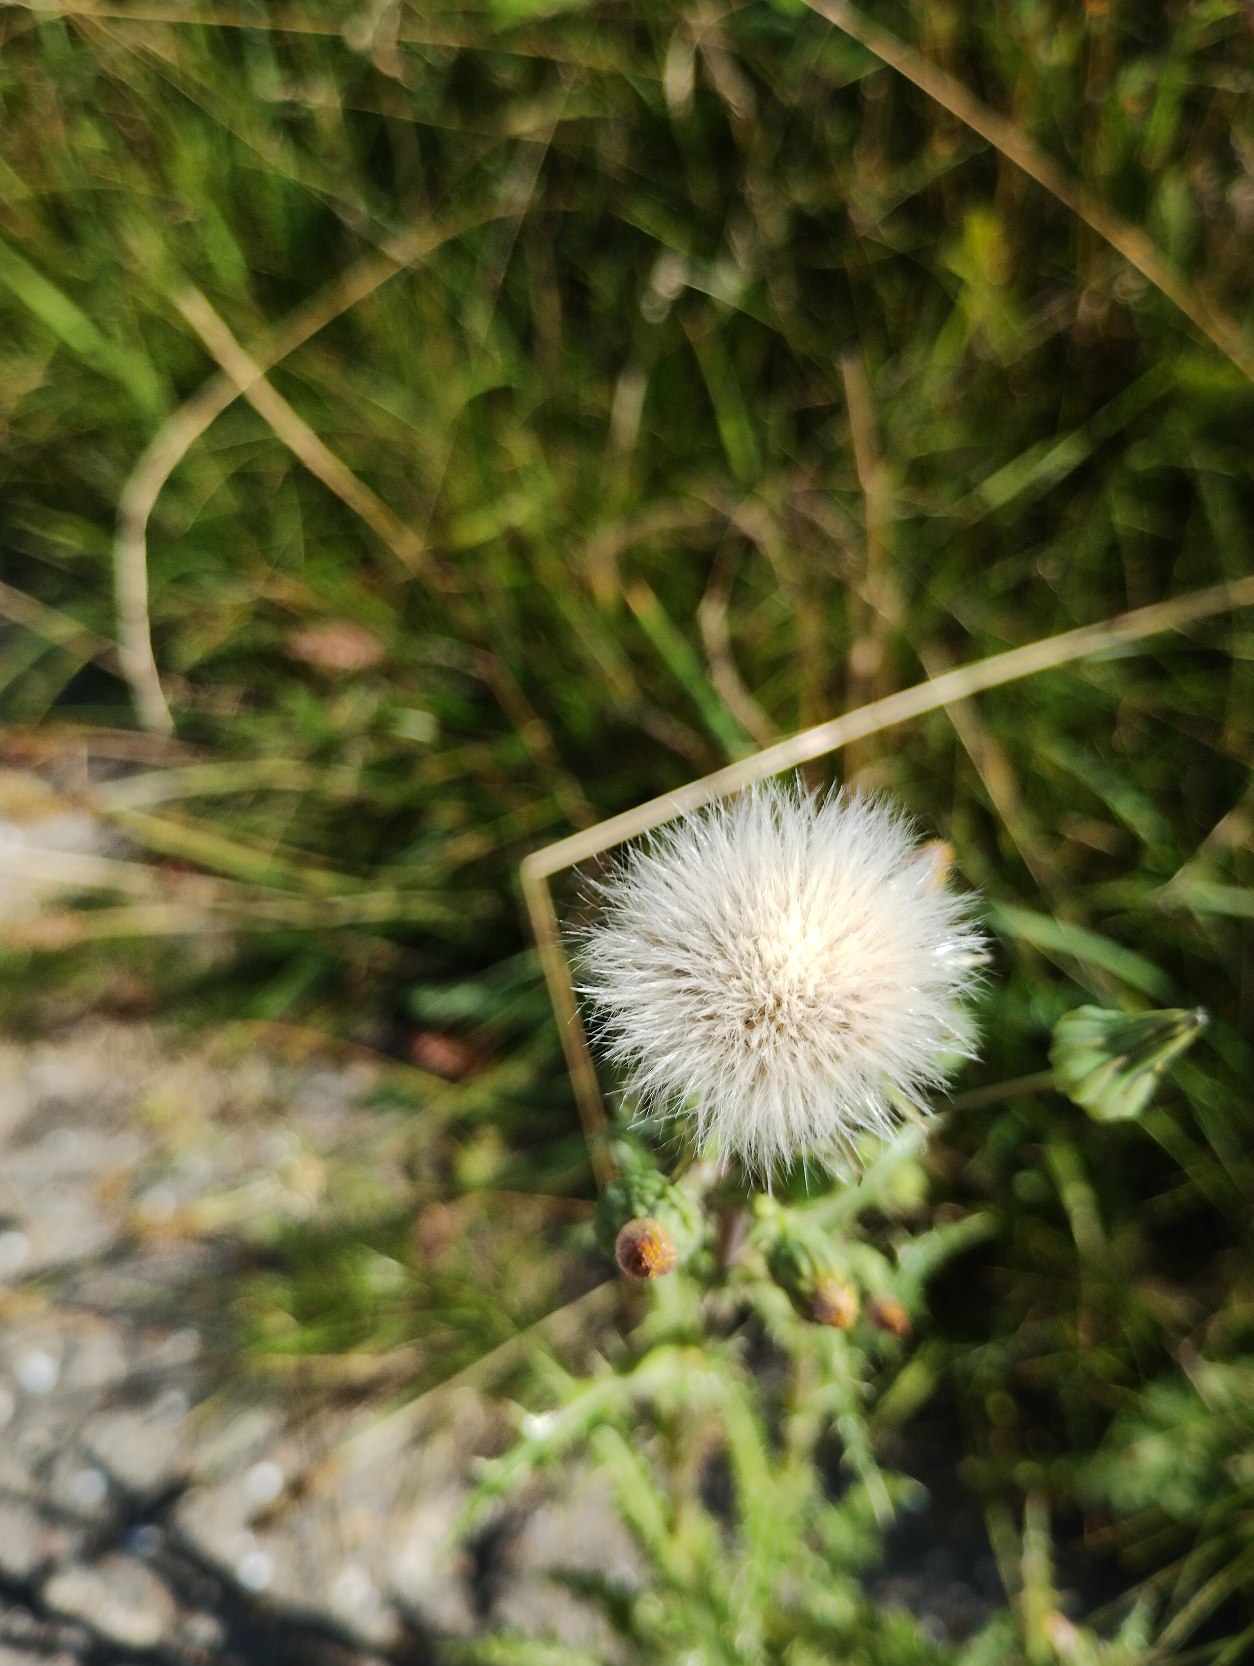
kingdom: Plantae
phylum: Tracheophyta
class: Magnoliopsida
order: Asterales
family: Asteraceae
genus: Sonchus
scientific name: Sonchus asper
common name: Ru svinemælk
